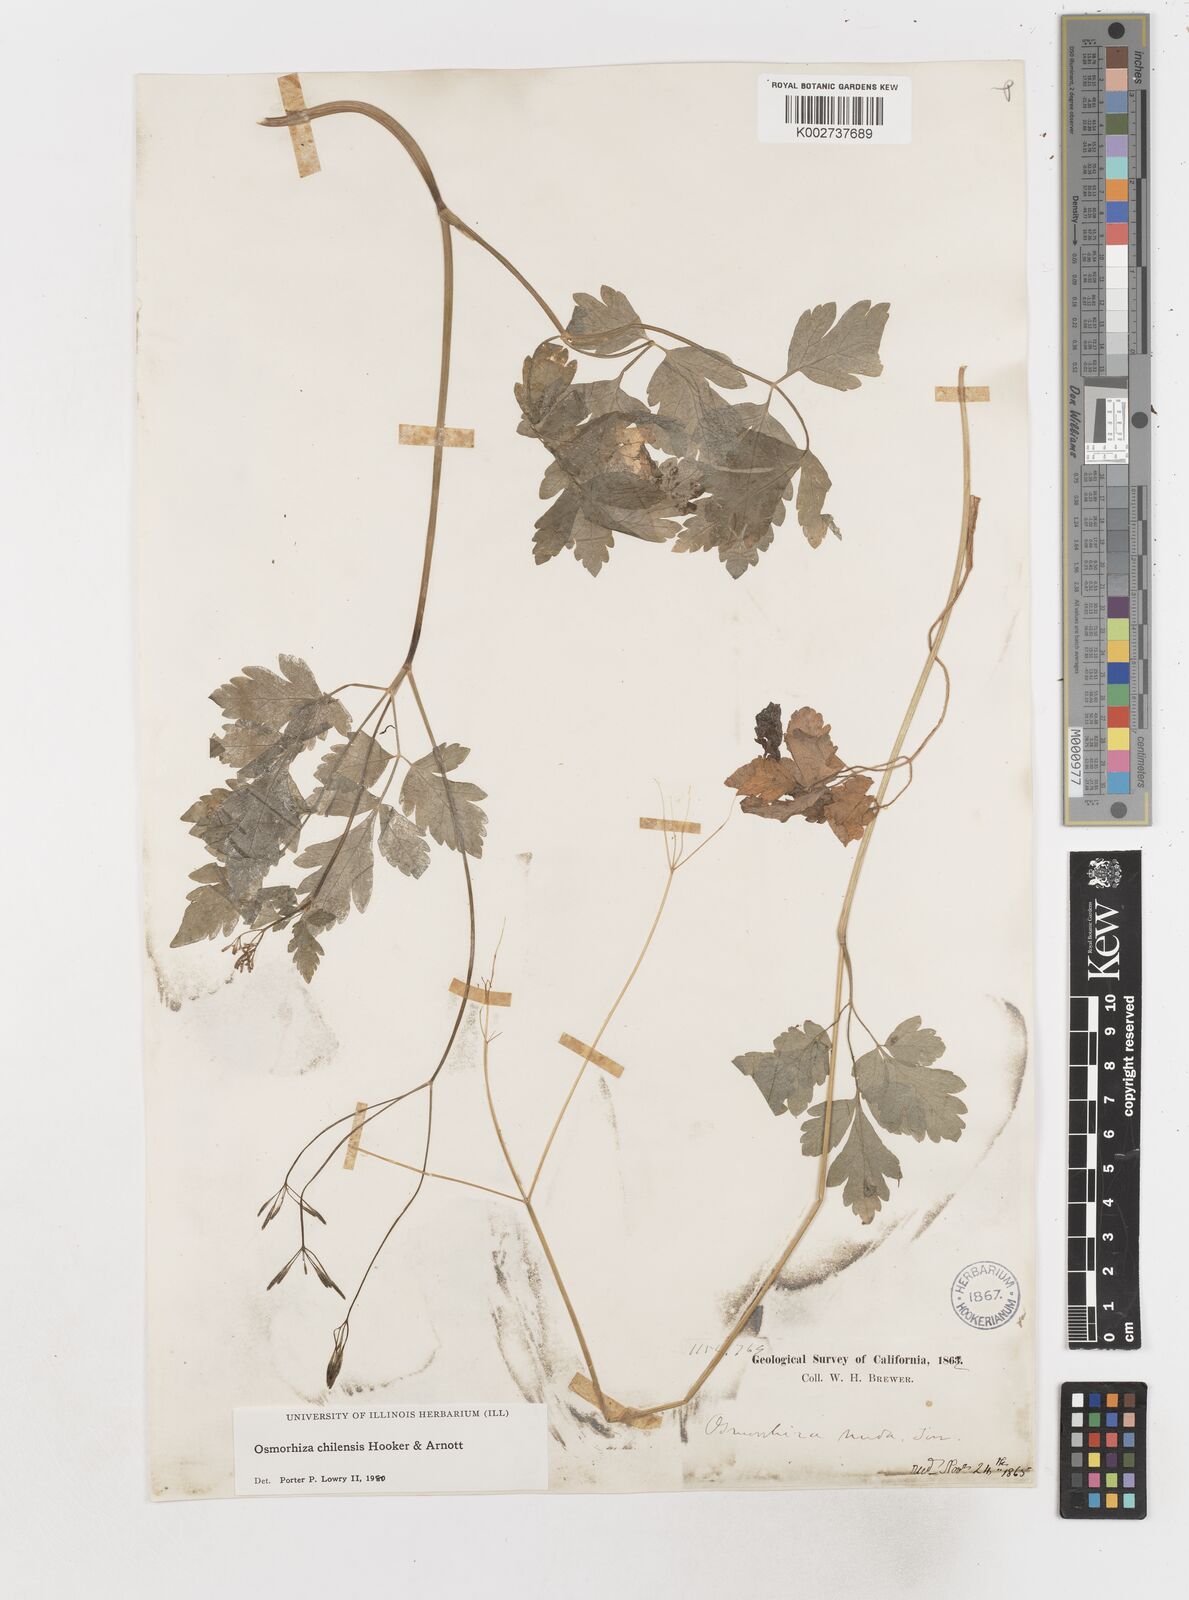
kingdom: Plantae
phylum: Tracheophyta
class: Magnoliopsida
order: Apiales
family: Apiaceae
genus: Osmorhiza
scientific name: Osmorhiza berteroi
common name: Mountain sweet cicely
